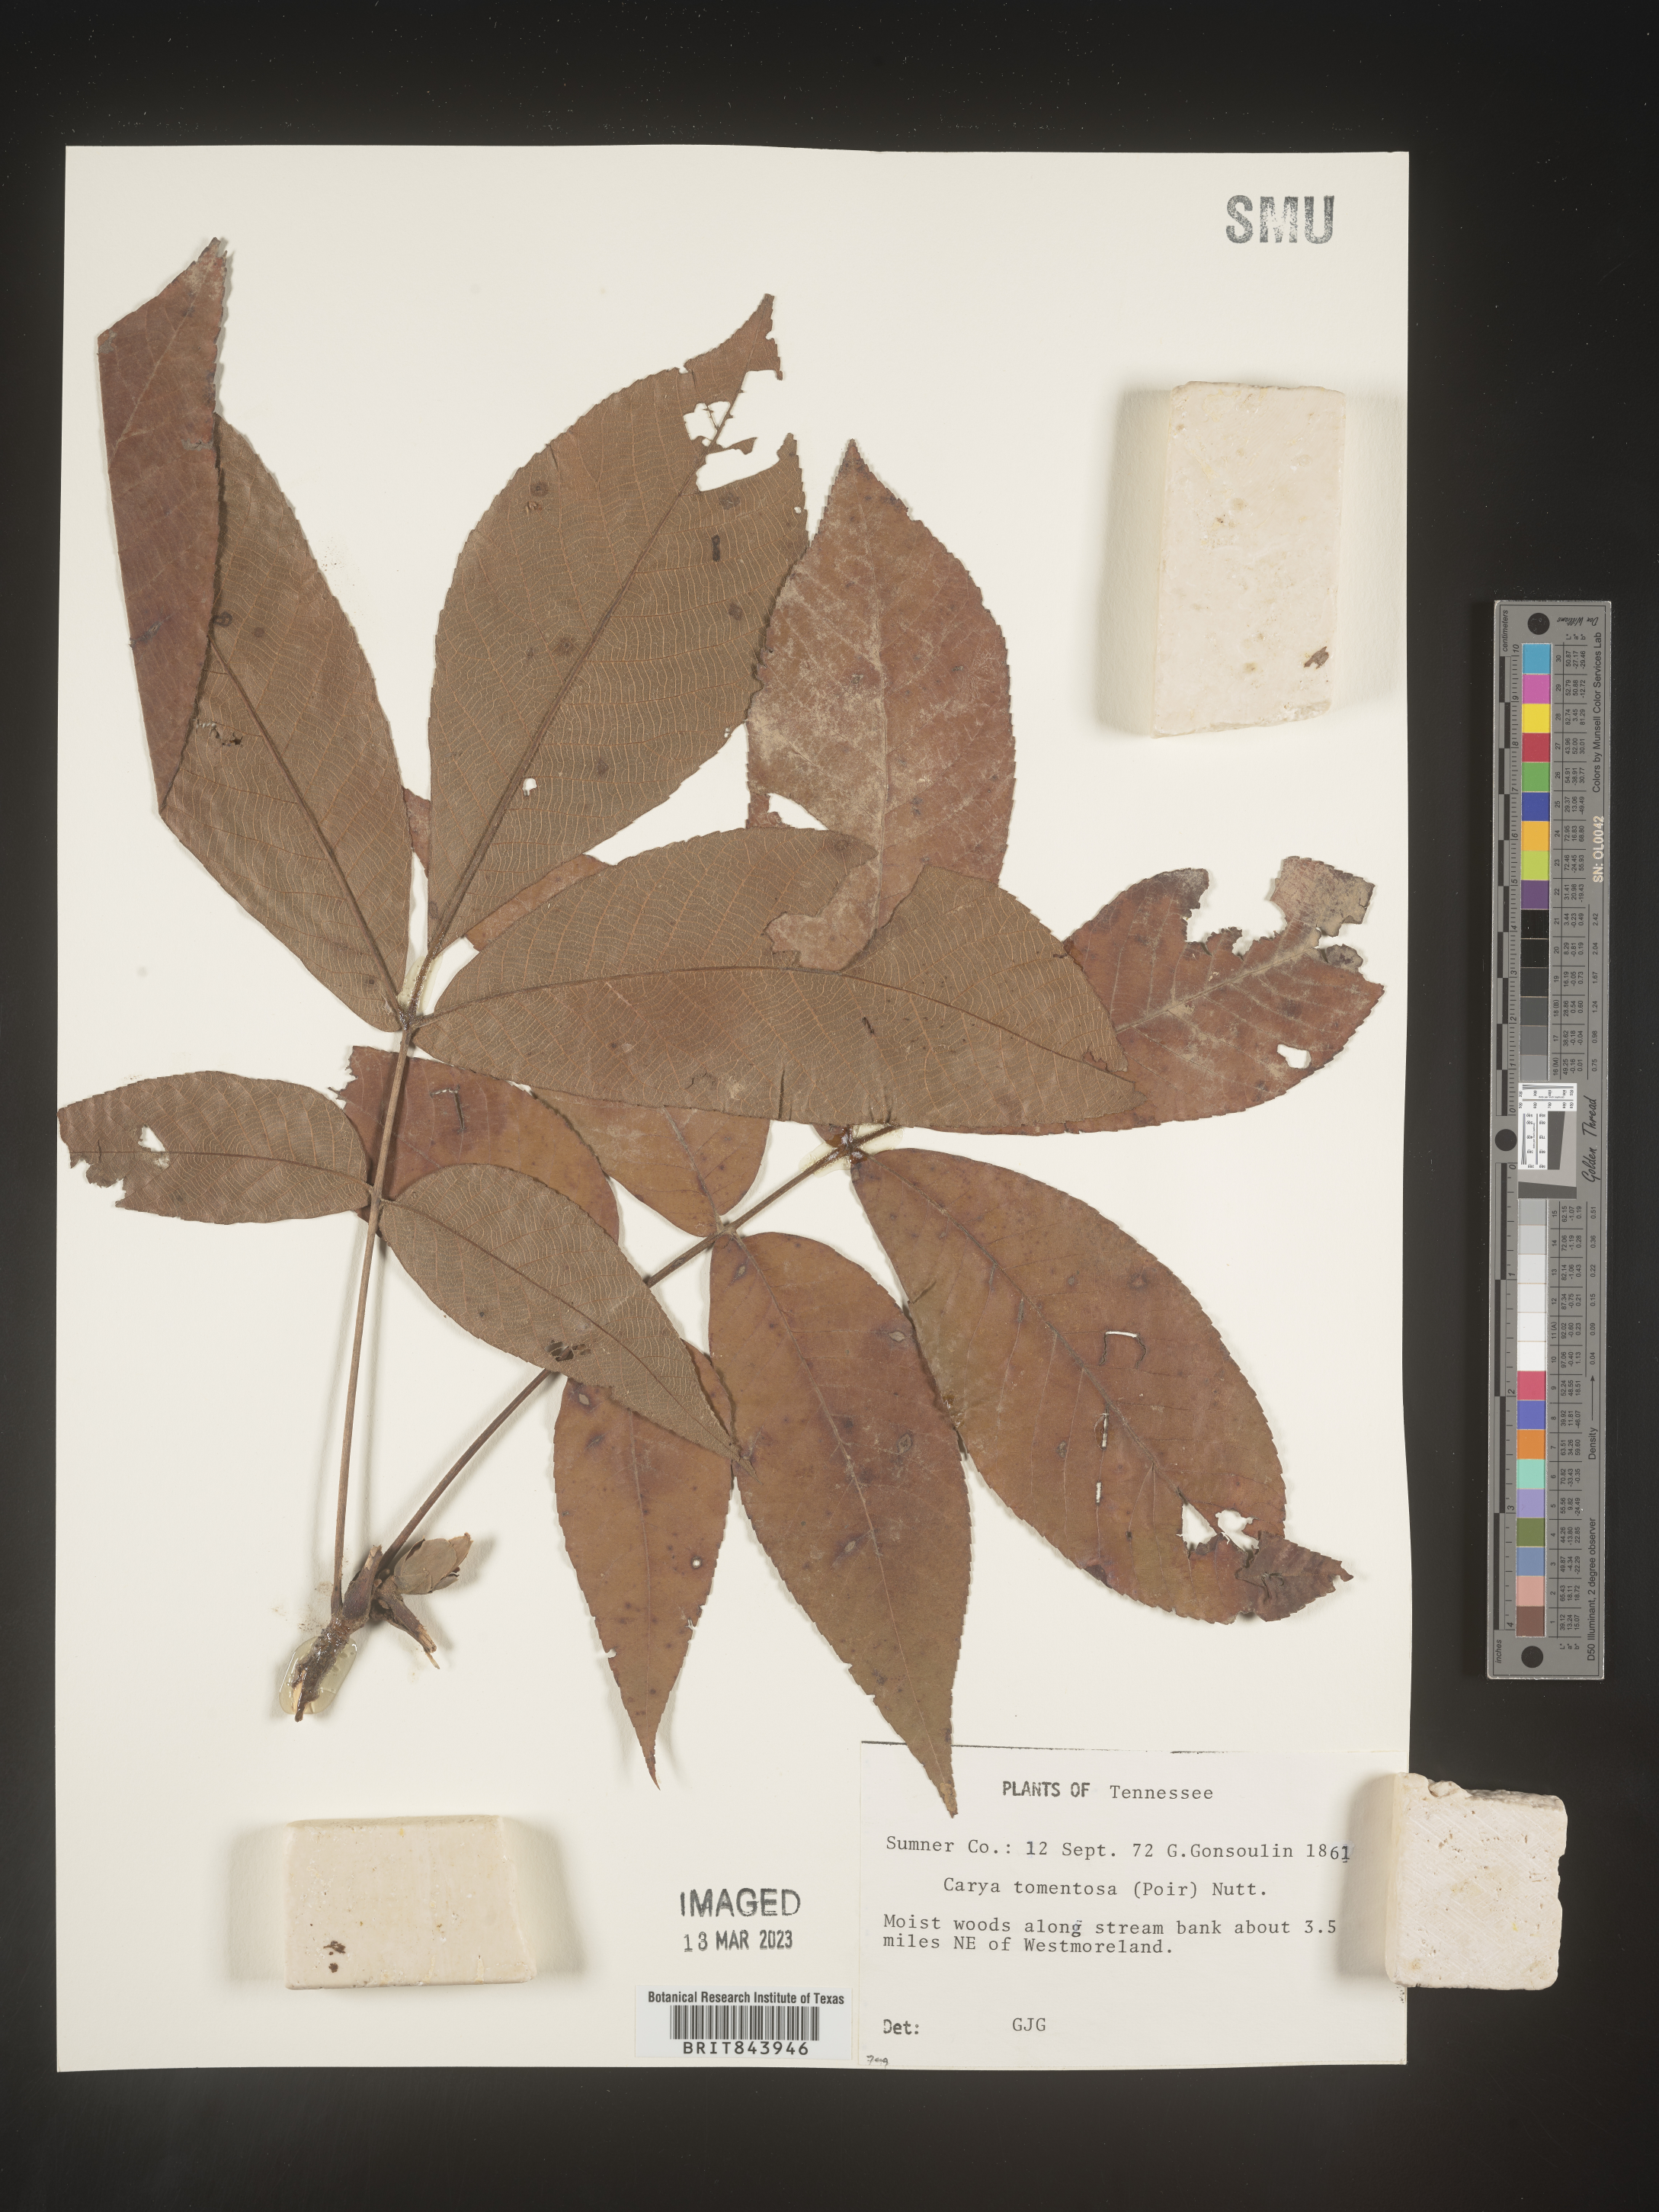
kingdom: Plantae
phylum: Tracheophyta
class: Magnoliopsida
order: Fagales
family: Juglandaceae
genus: Carya
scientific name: Carya alba
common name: Mockernut hickory
